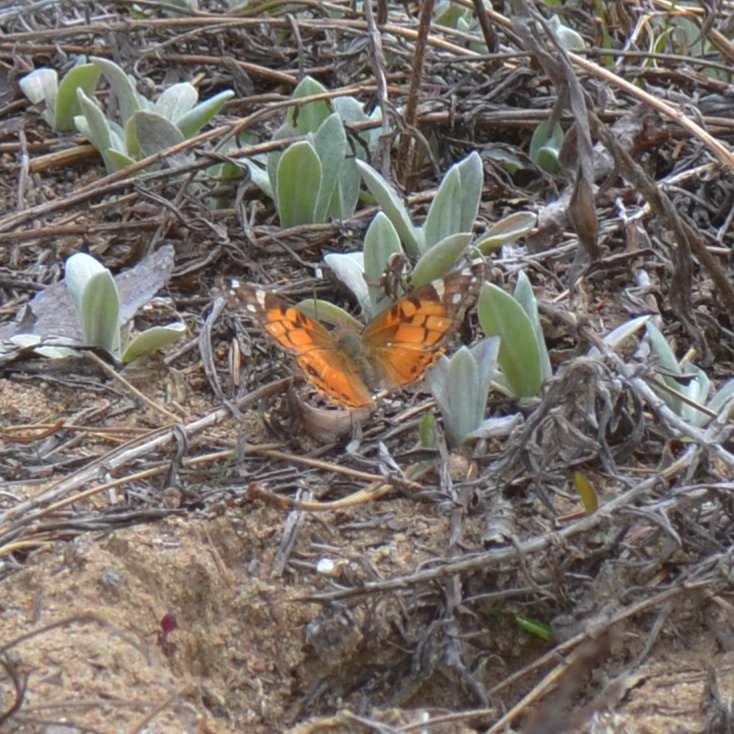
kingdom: Animalia
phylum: Arthropoda
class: Insecta
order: Lepidoptera
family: Nymphalidae
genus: Vanessa
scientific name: Vanessa virginiensis
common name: American Lady
